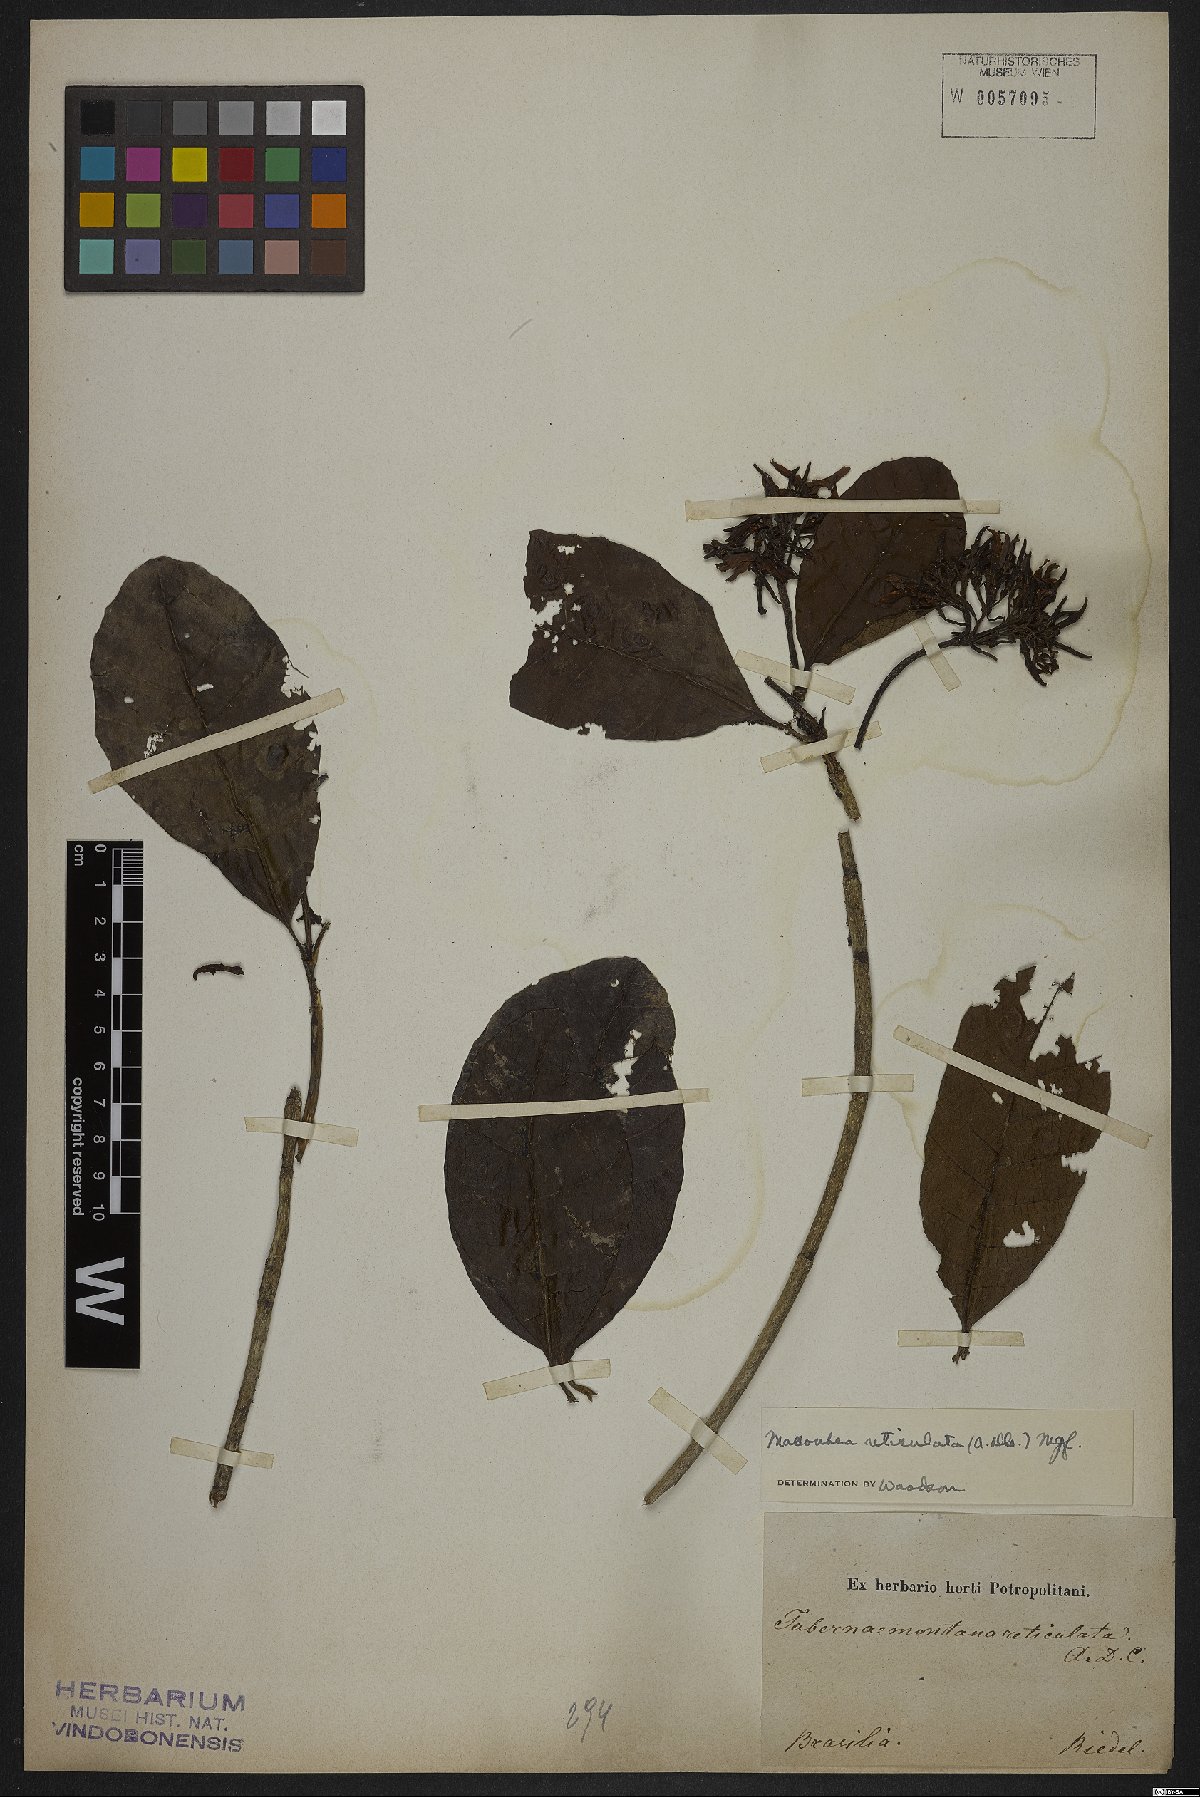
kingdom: Plantae
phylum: Tracheophyta
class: Magnoliopsida
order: Gentianales
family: Apocynaceae
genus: Macoubea
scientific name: Macoubea guianensis
